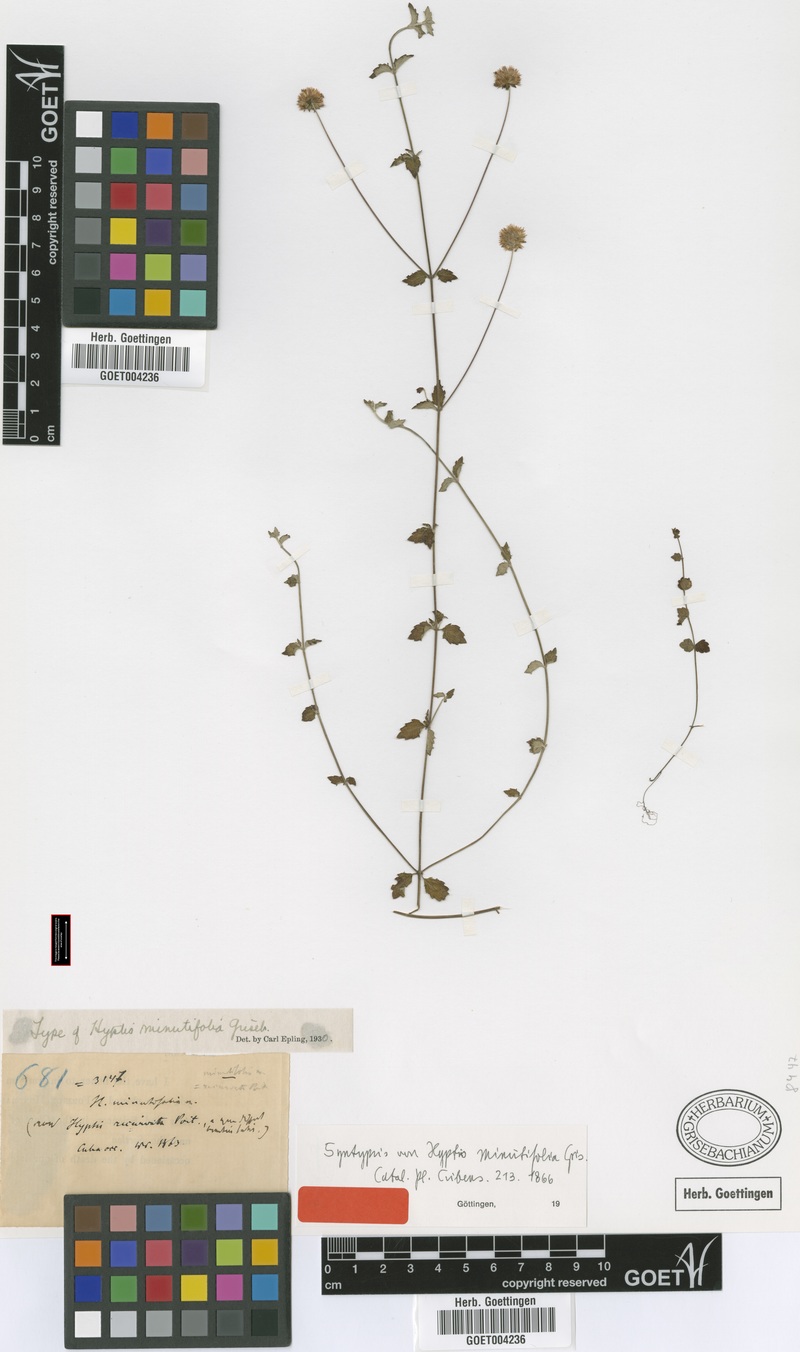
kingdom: Plantae
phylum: Tracheophyta
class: Magnoliopsida
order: Lamiales
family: Lamiaceae
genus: Hyptis
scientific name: Hyptis minutifolia
